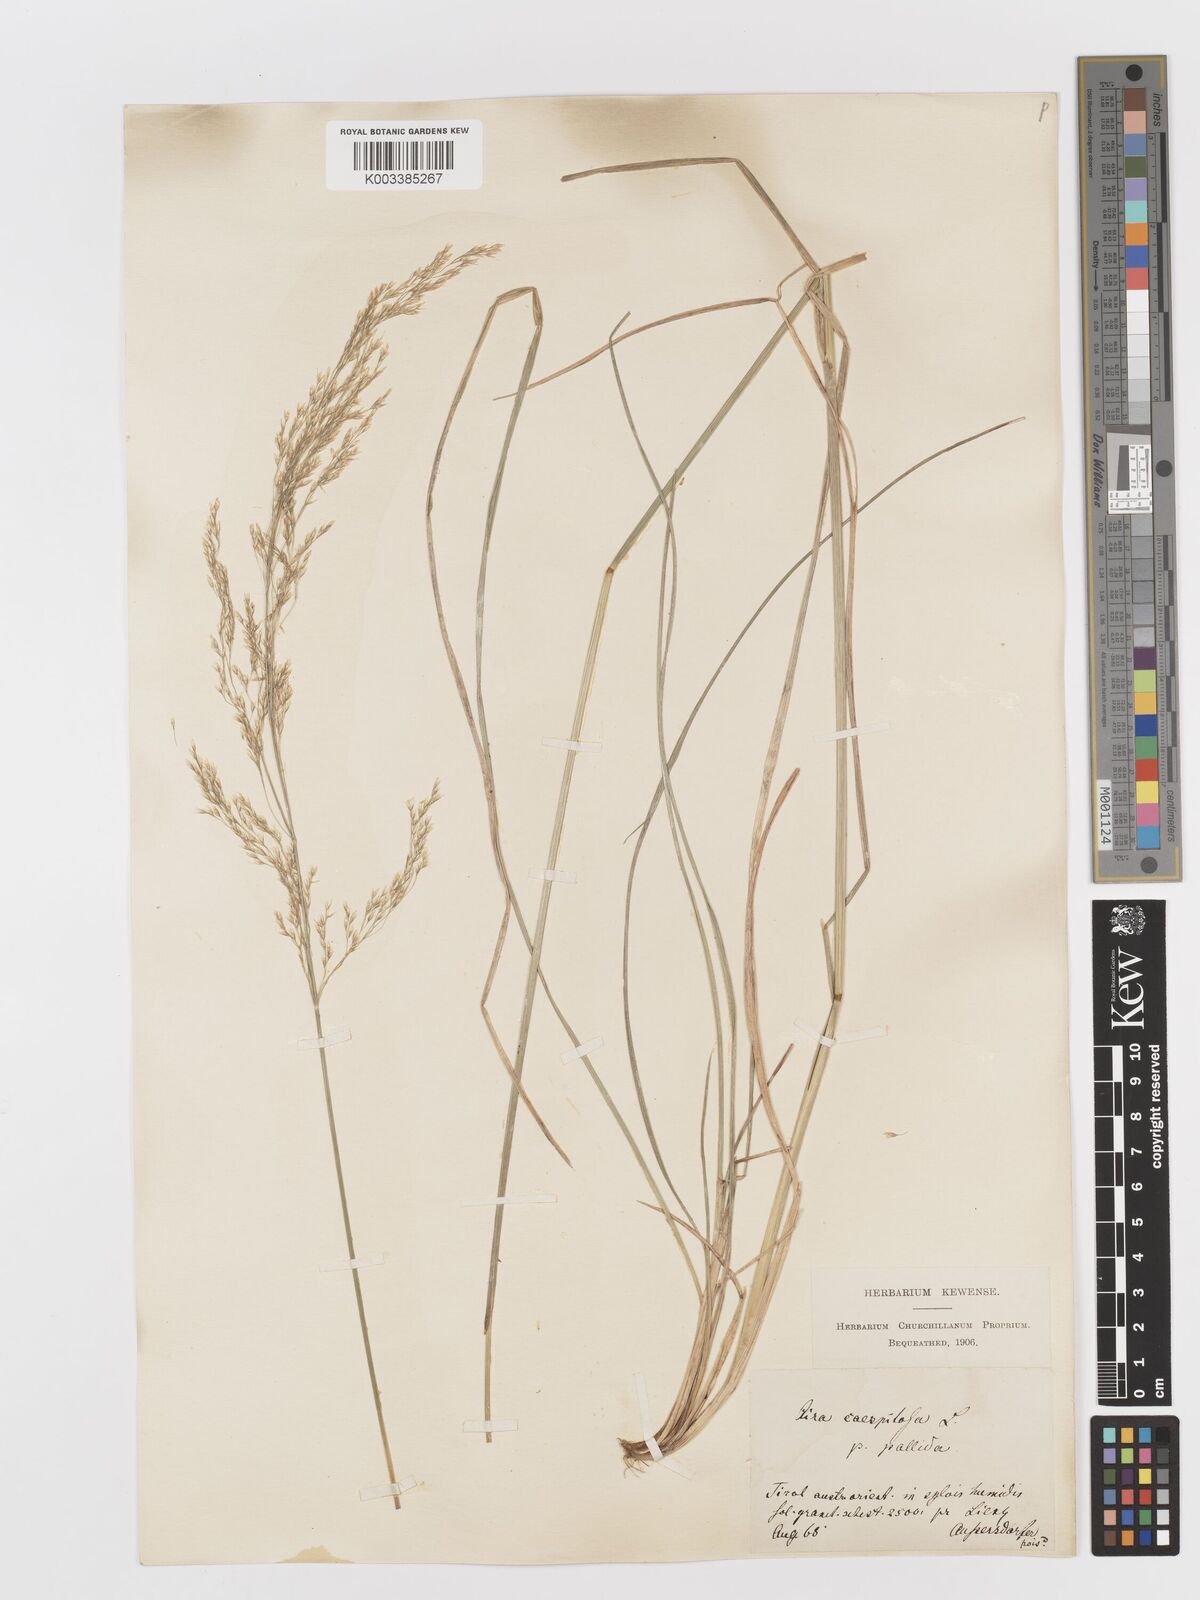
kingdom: Plantae
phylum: Tracheophyta
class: Liliopsida
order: Poales
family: Poaceae
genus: Deschampsia
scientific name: Deschampsia cespitosa
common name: Tufted hair-grass
